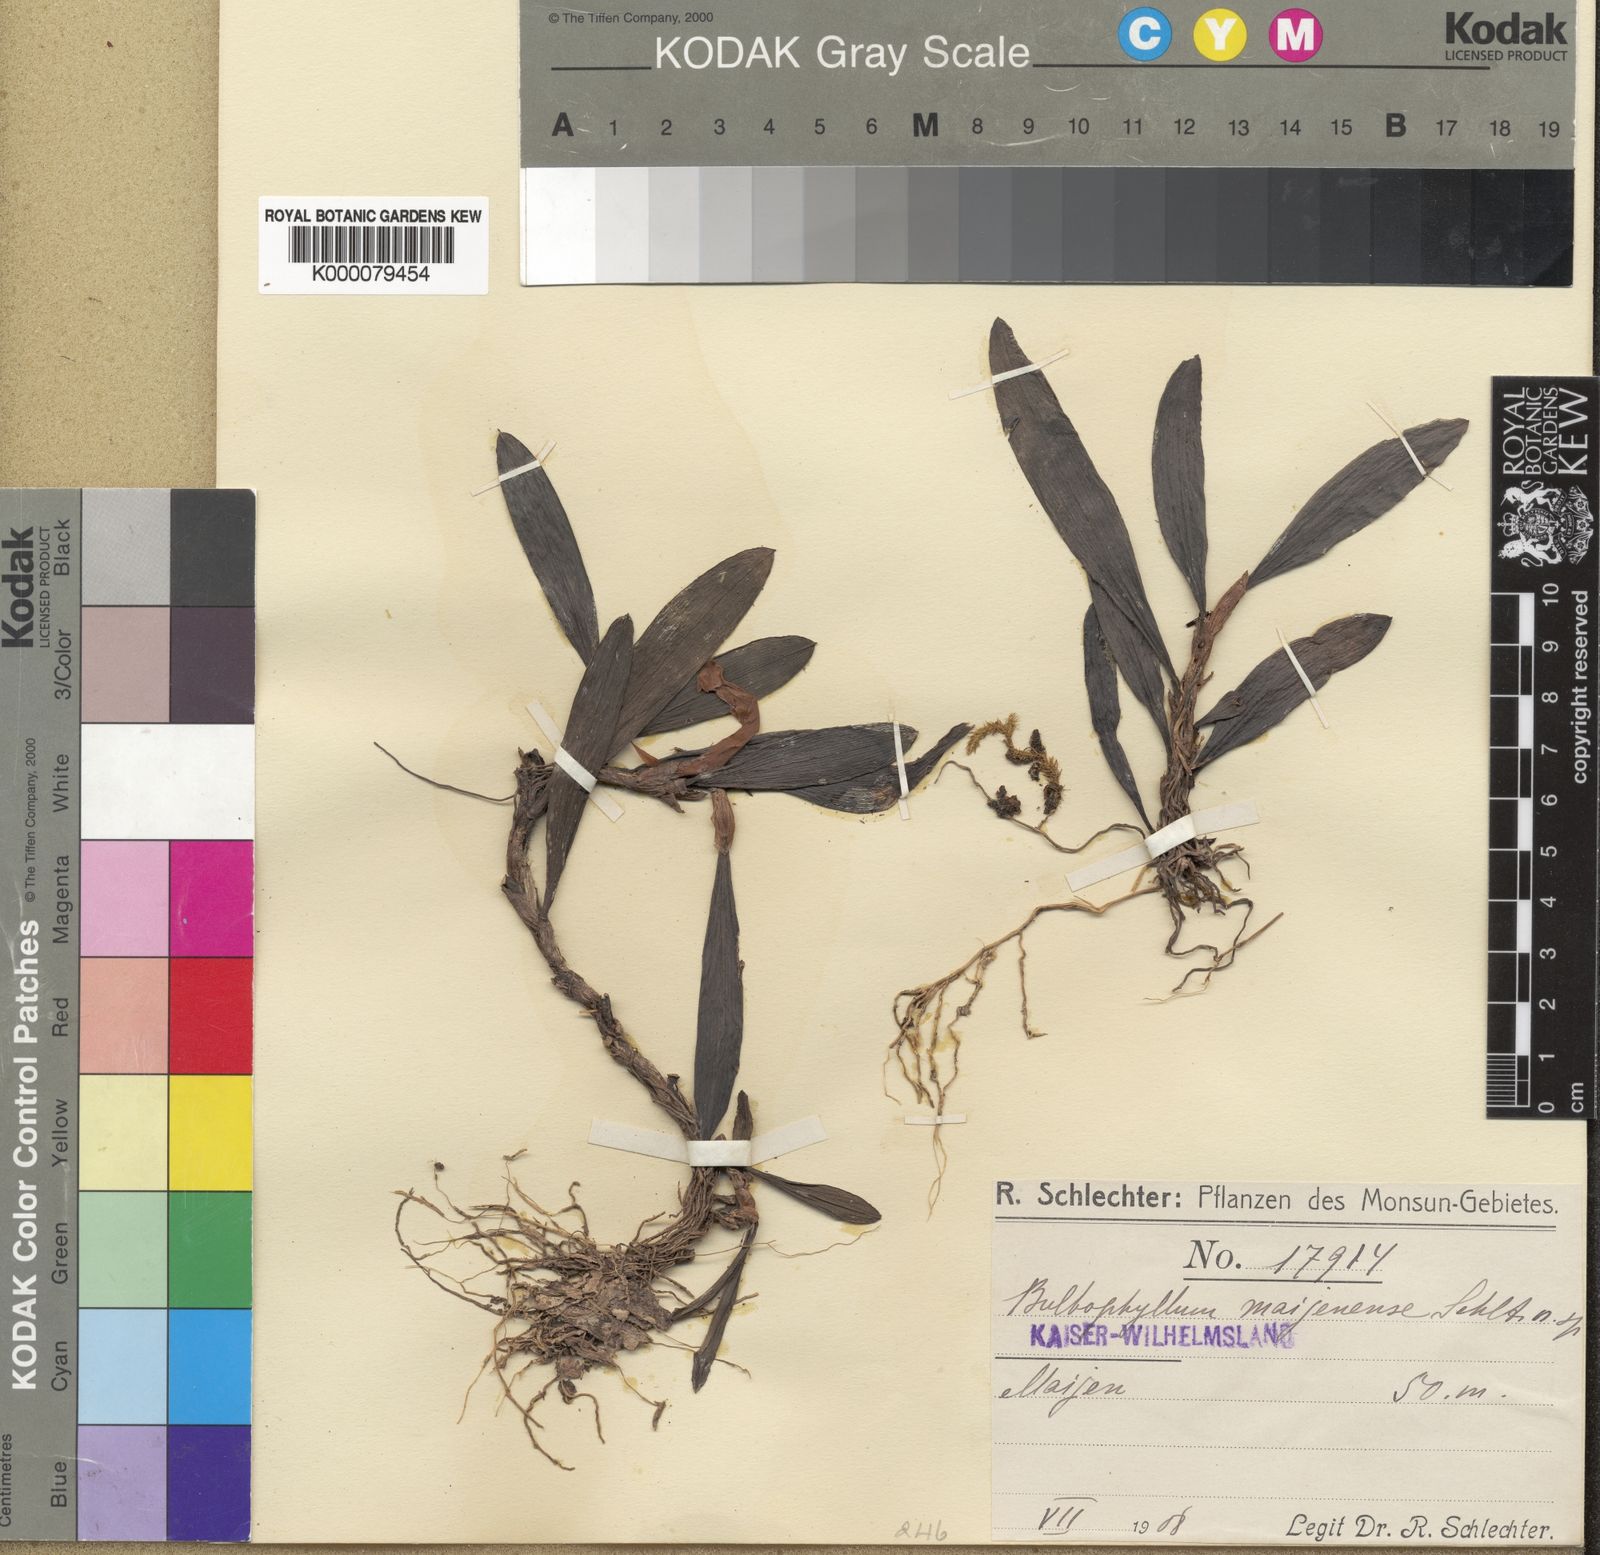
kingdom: Plantae
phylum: Tracheophyta
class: Liliopsida
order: Asparagales
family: Orchidaceae
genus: Bulbophyllum
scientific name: Bulbophyllum maijenense
